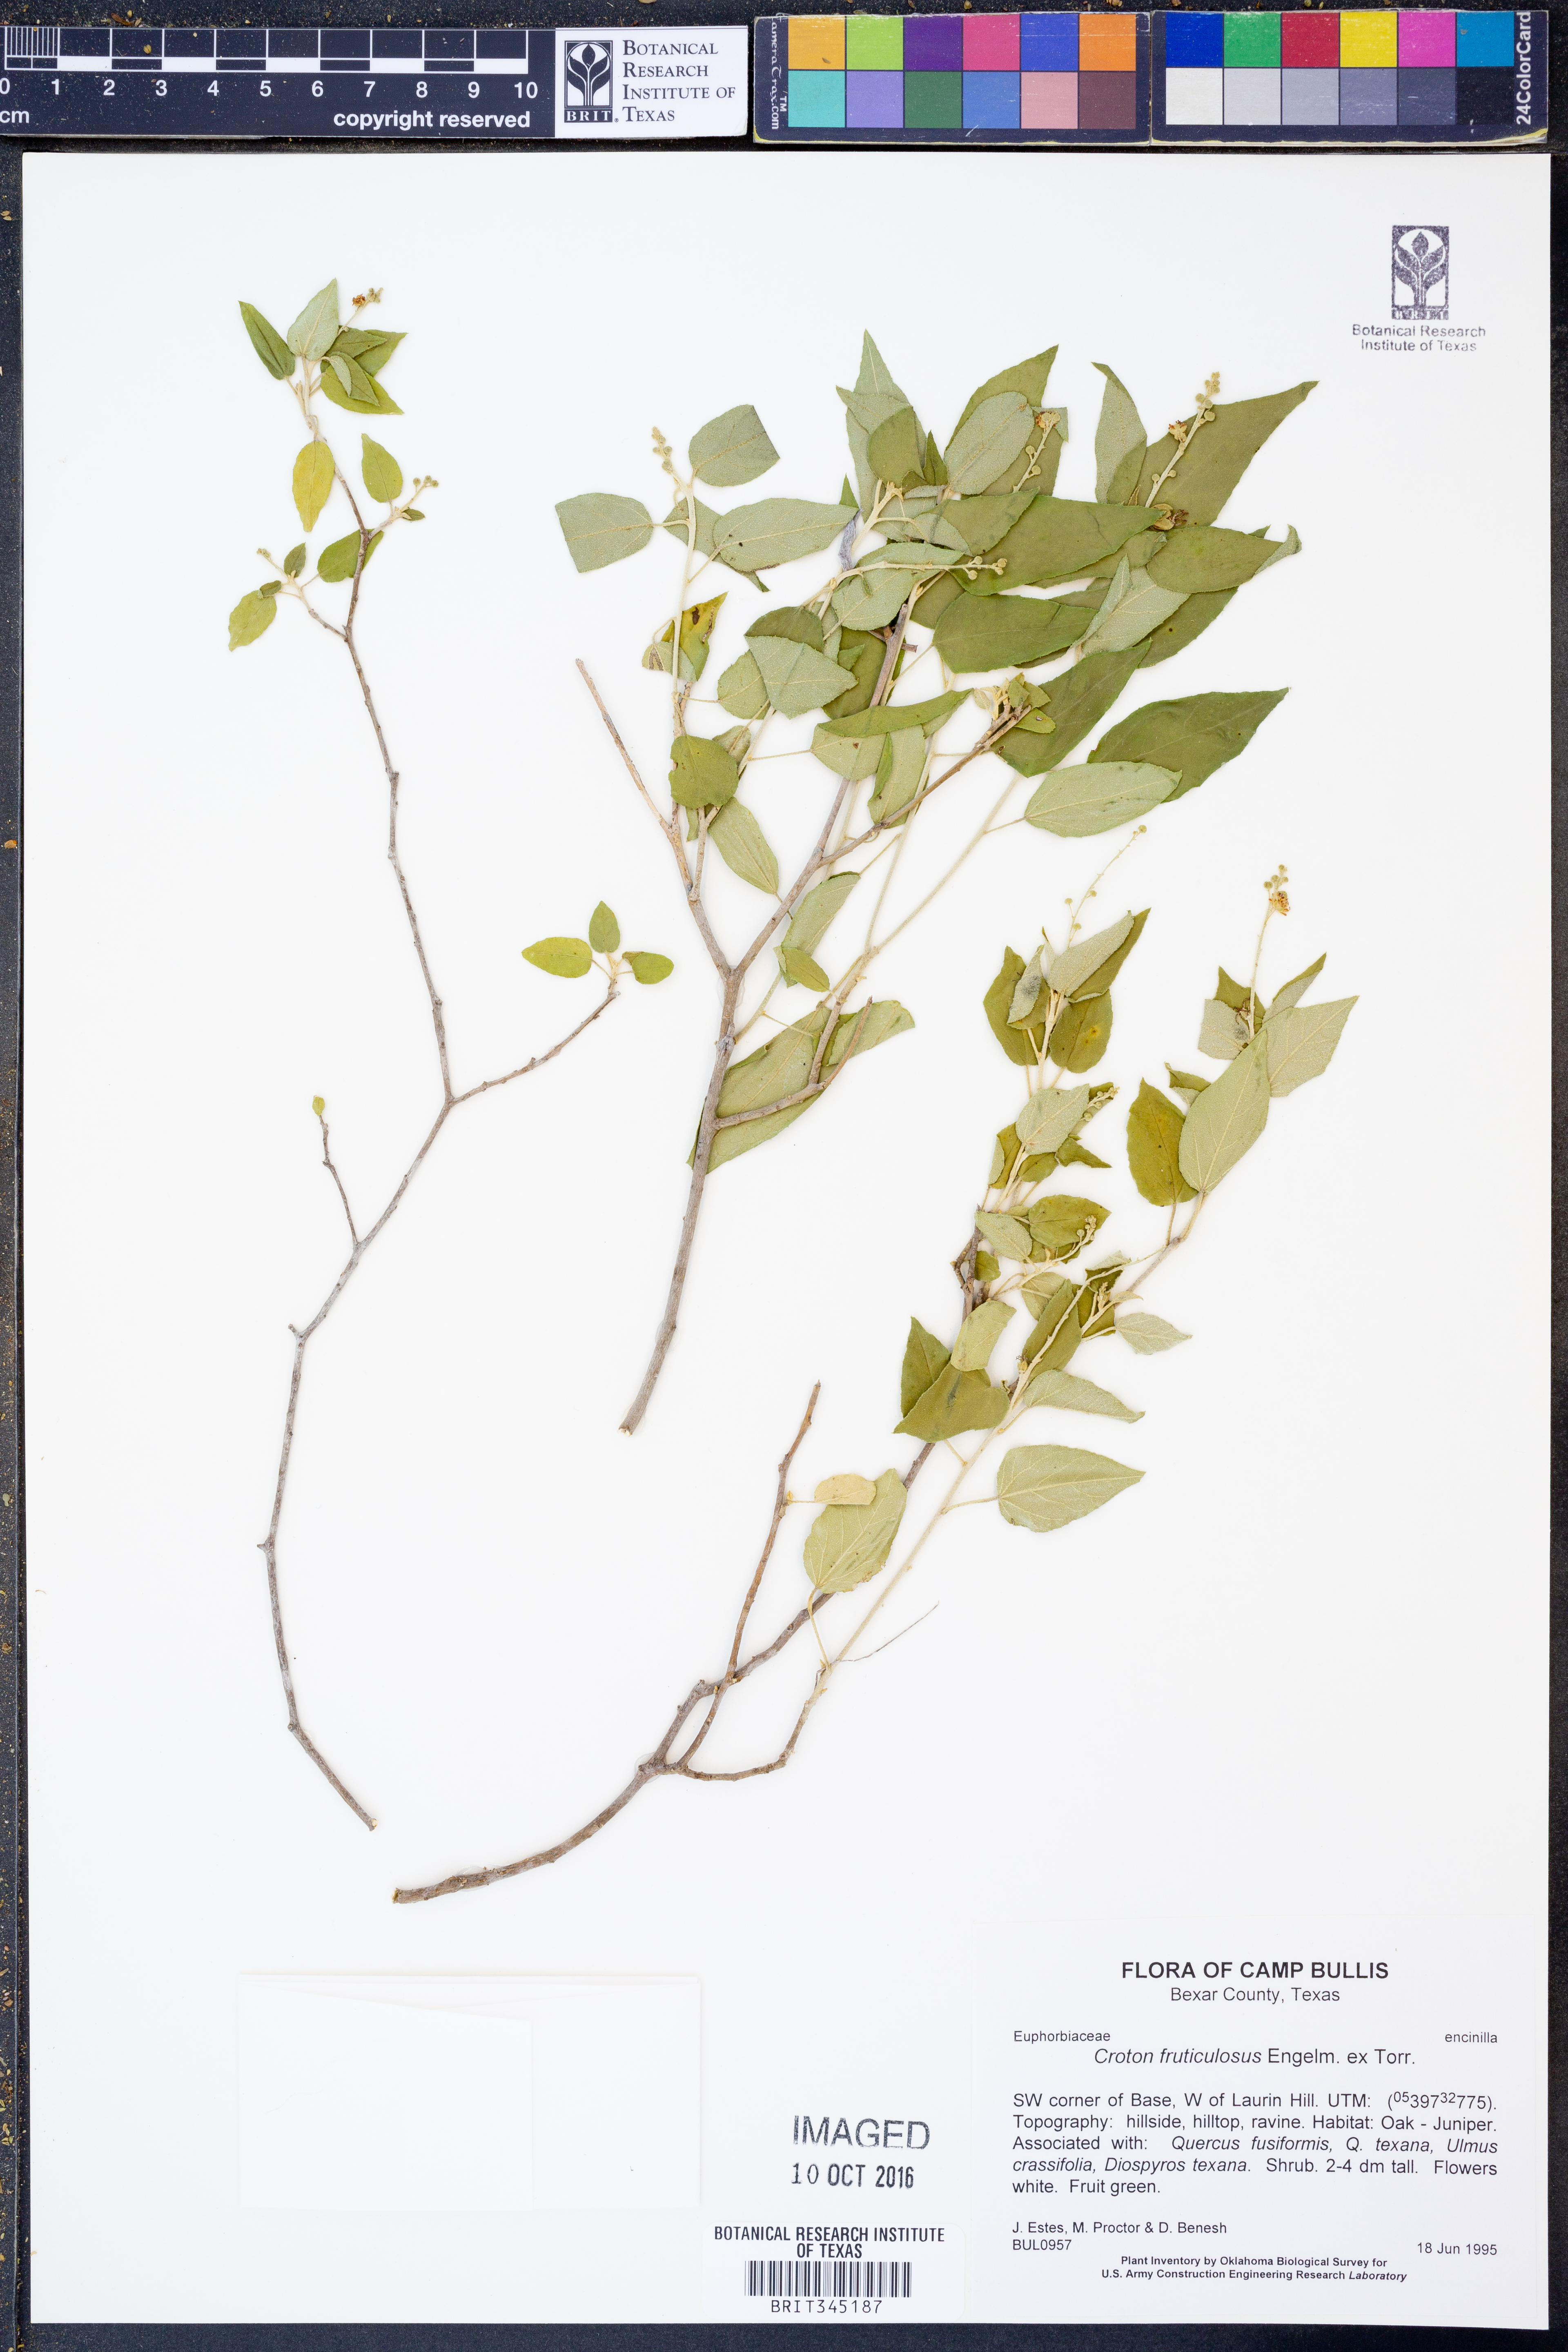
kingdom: Plantae
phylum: Tracheophyta
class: Magnoliopsida
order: Malpighiales
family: Euphorbiaceae
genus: Croton
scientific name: Croton fruticulosus
